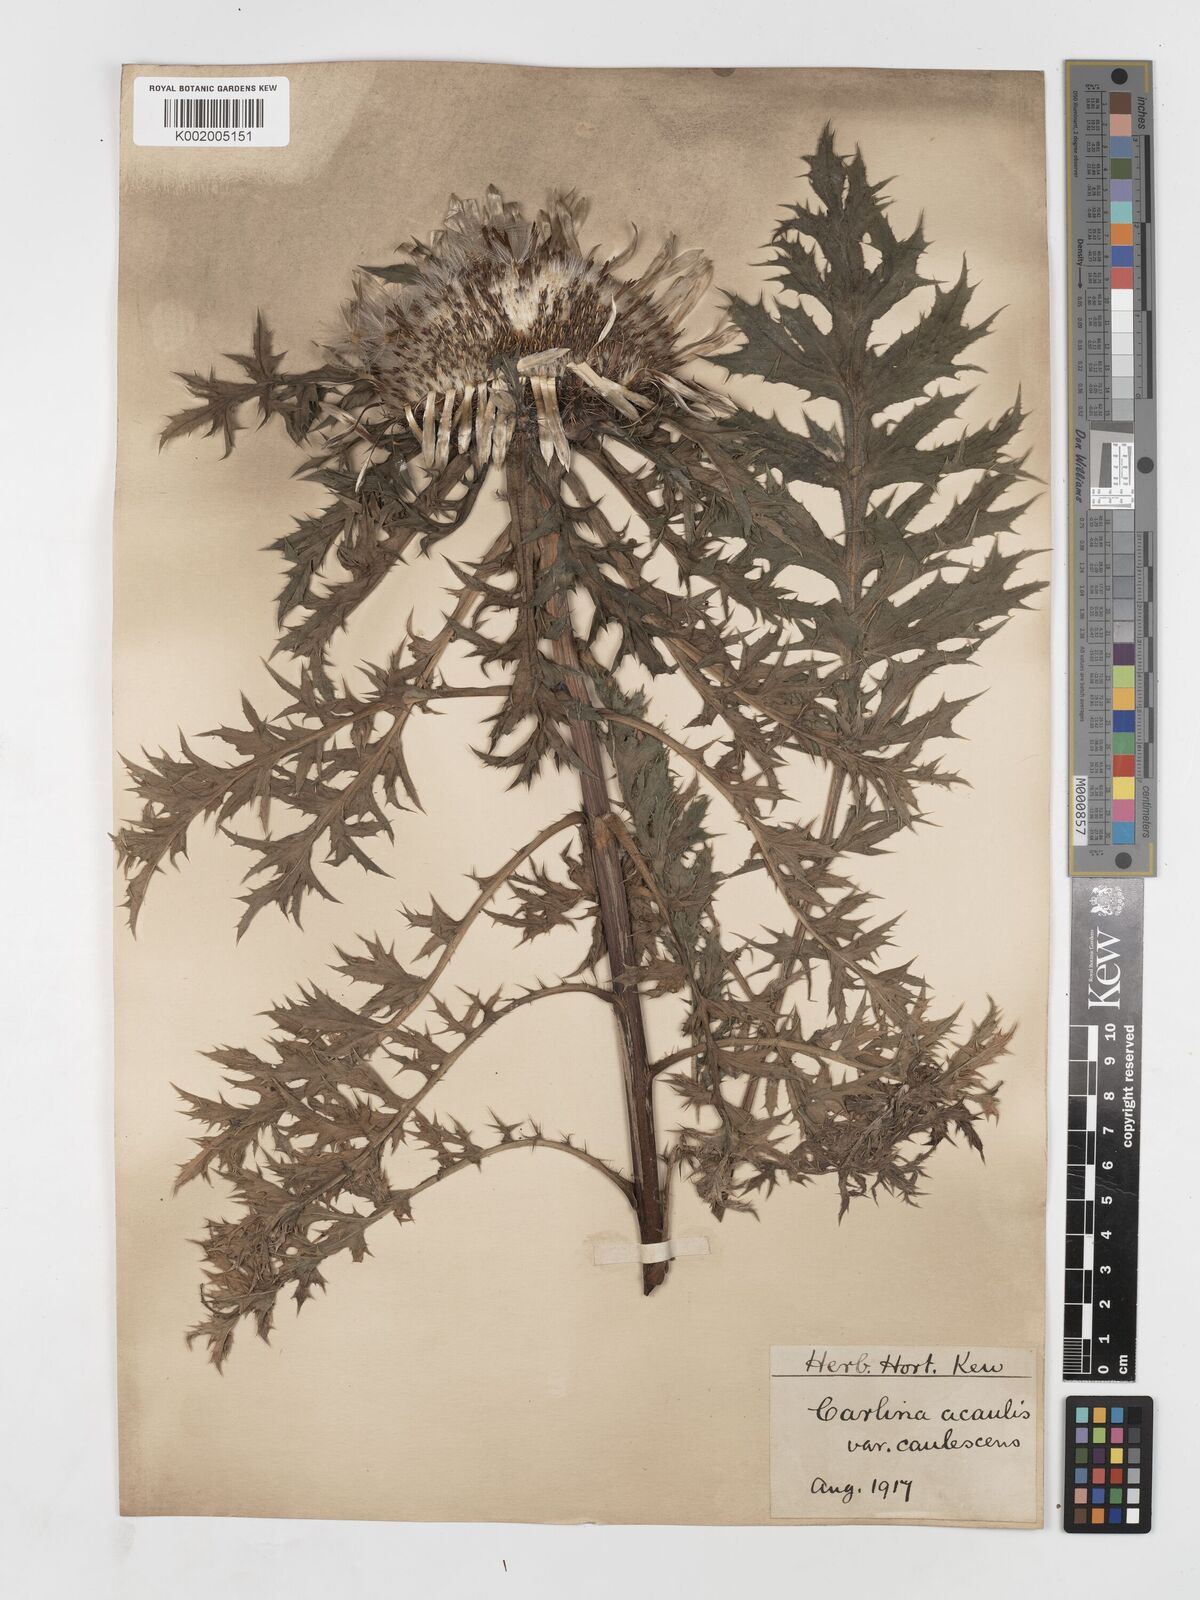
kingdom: Plantae
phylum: Tracheophyta
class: Magnoliopsida
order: Asterales
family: Asteraceae
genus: Carlina
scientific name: Carlina acaulis
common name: Stemless carline thistle
